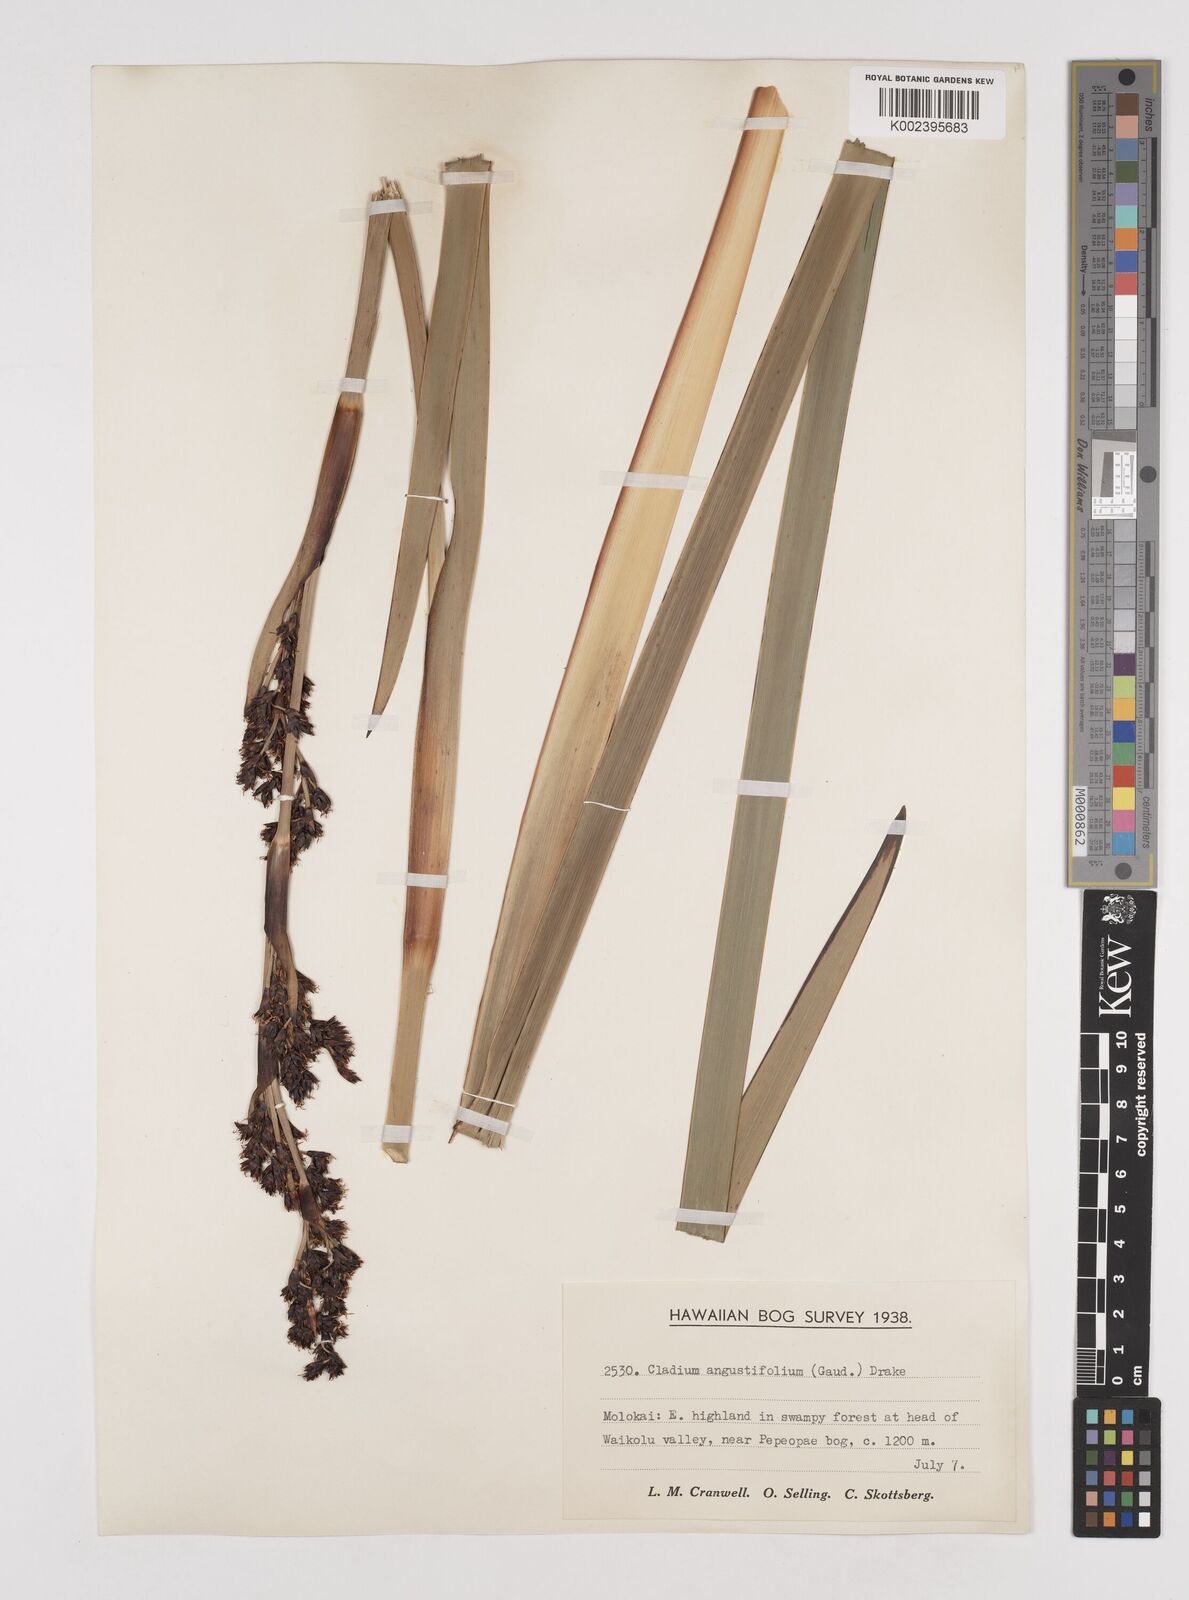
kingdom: Plantae
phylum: Tracheophyta
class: Liliopsida
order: Poales
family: Cyperaceae
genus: Machaerina
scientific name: Machaerina angustifolia
